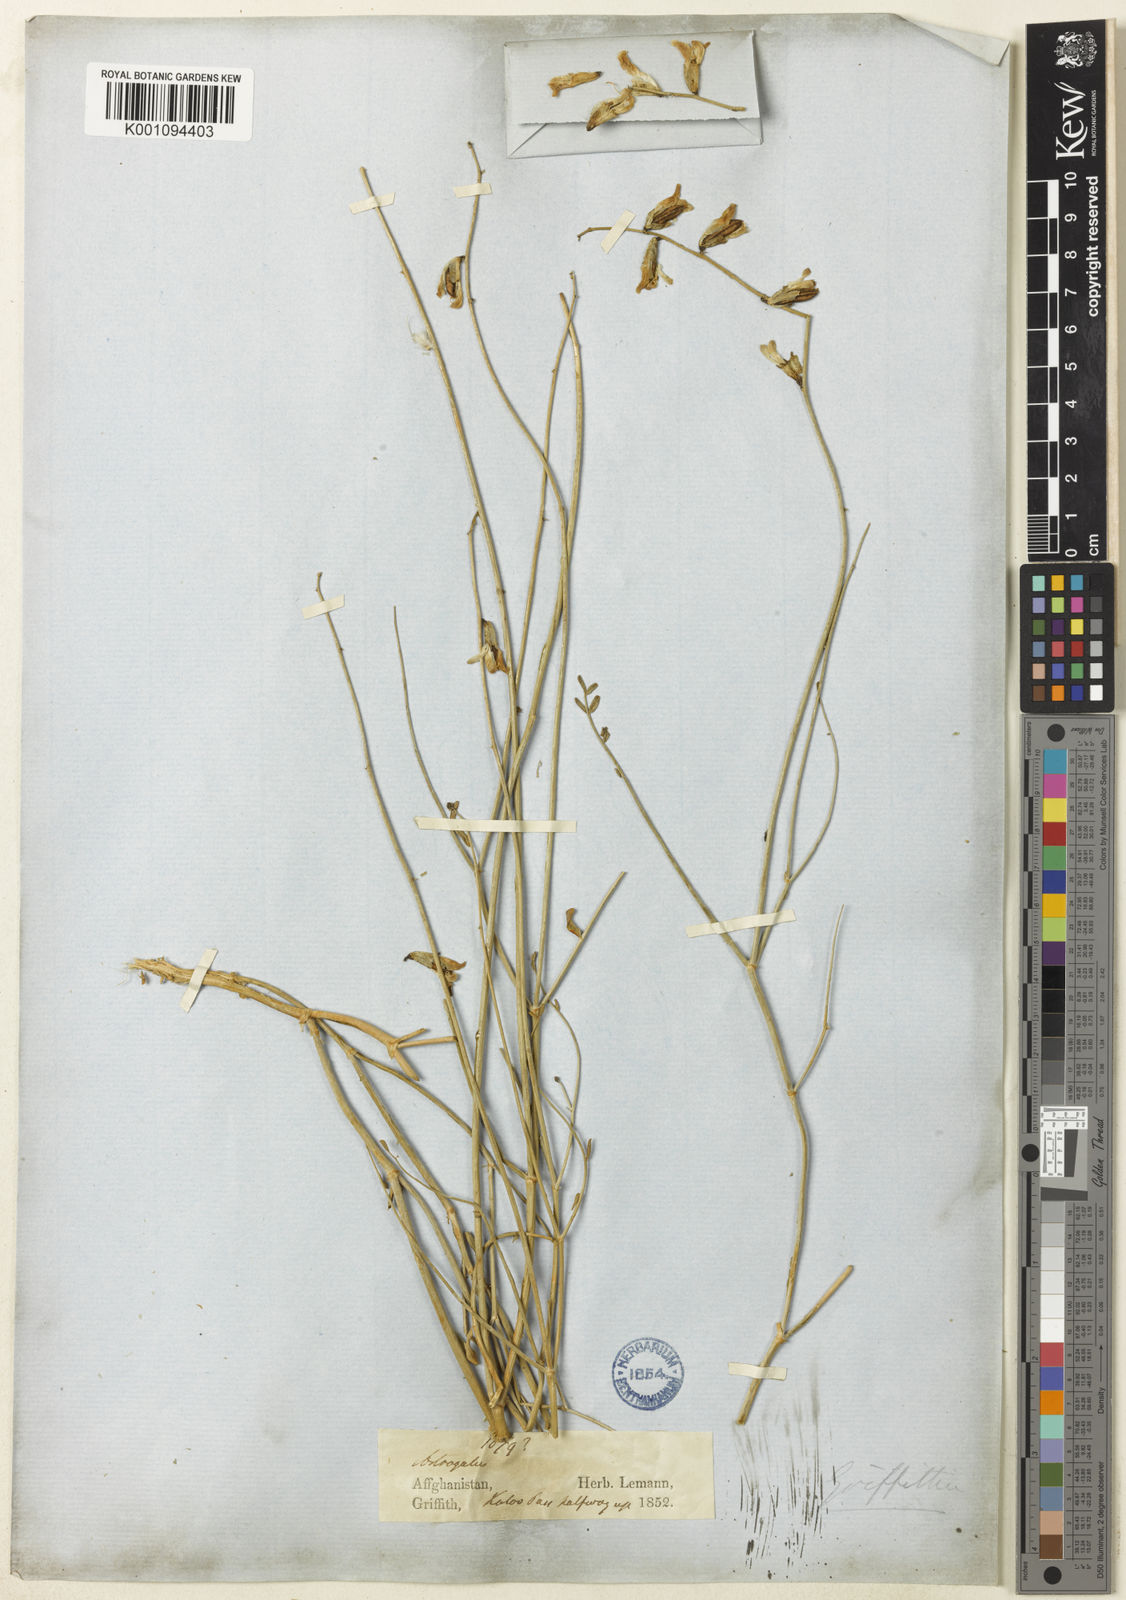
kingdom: Plantae
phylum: Tracheophyta
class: Magnoliopsida
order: Fabales
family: Fabaceae
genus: Astragalus
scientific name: Astragalus
